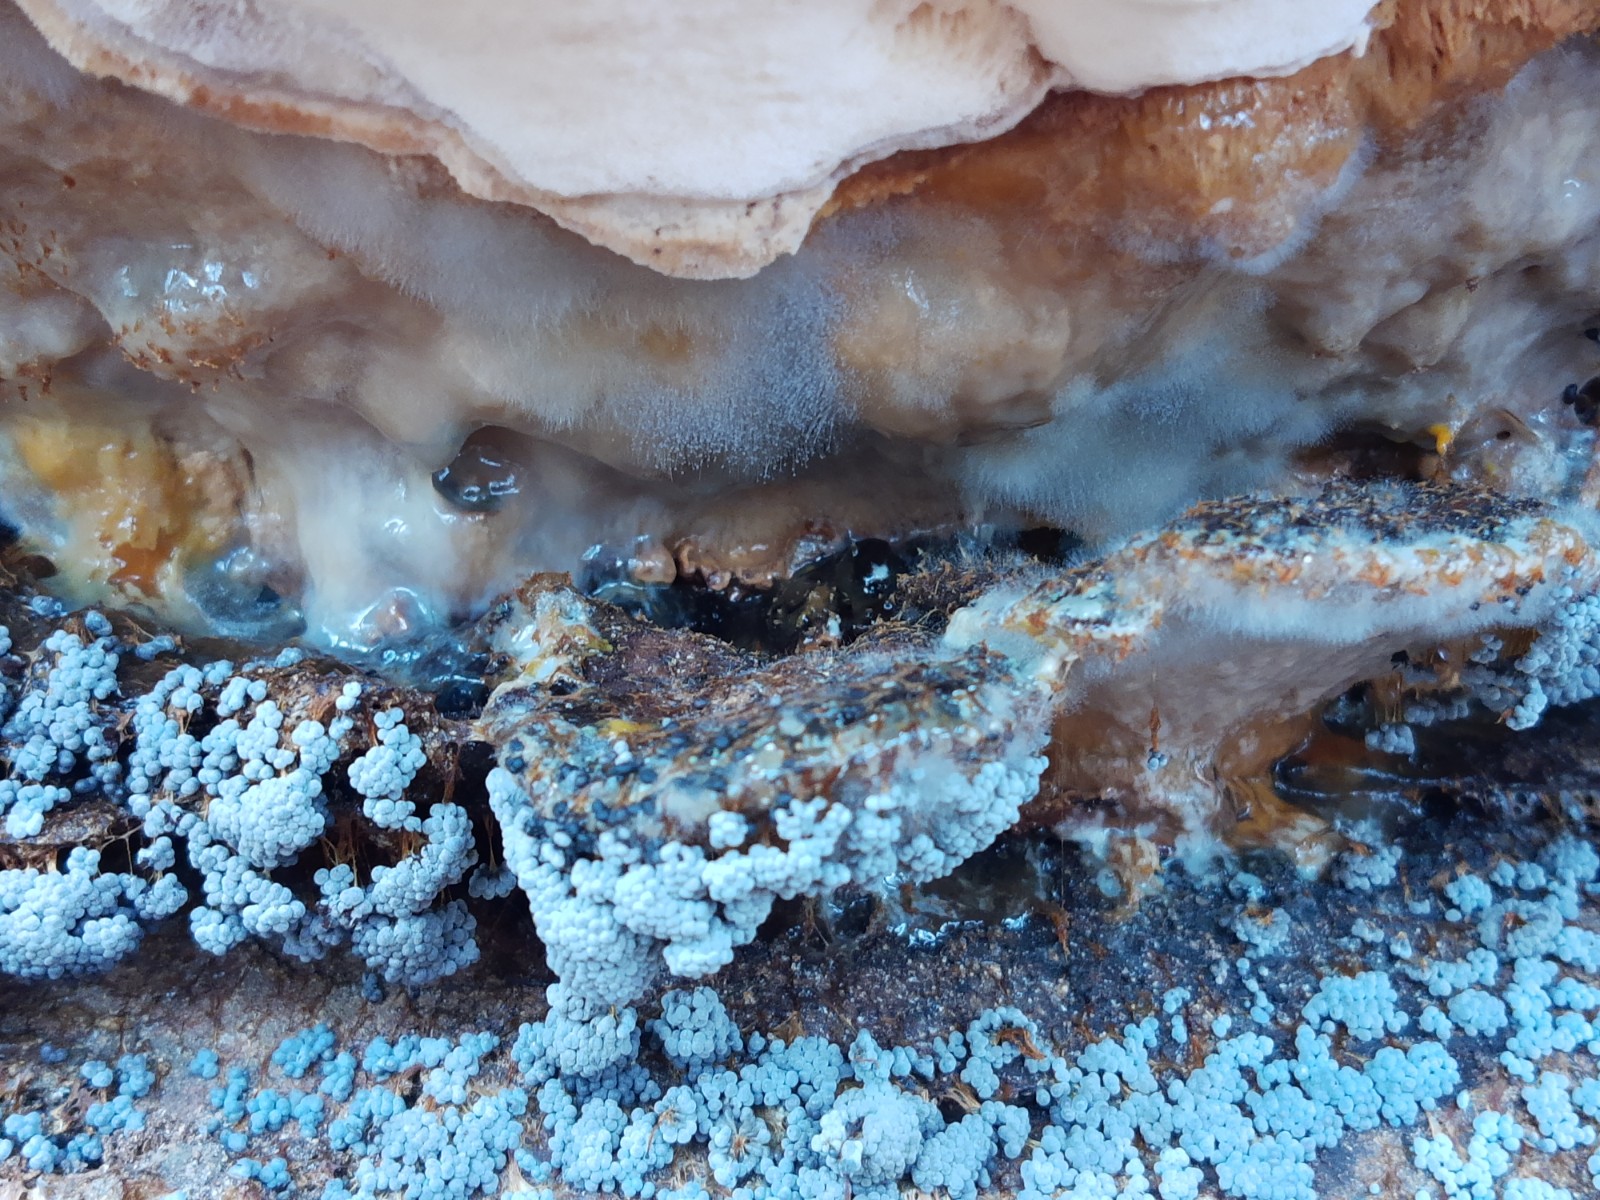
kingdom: Protozoa
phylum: Mycetozoa
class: Myxomycetes
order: Physarales
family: Physaraceae
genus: Badhamia
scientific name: Badhamia utricularis
